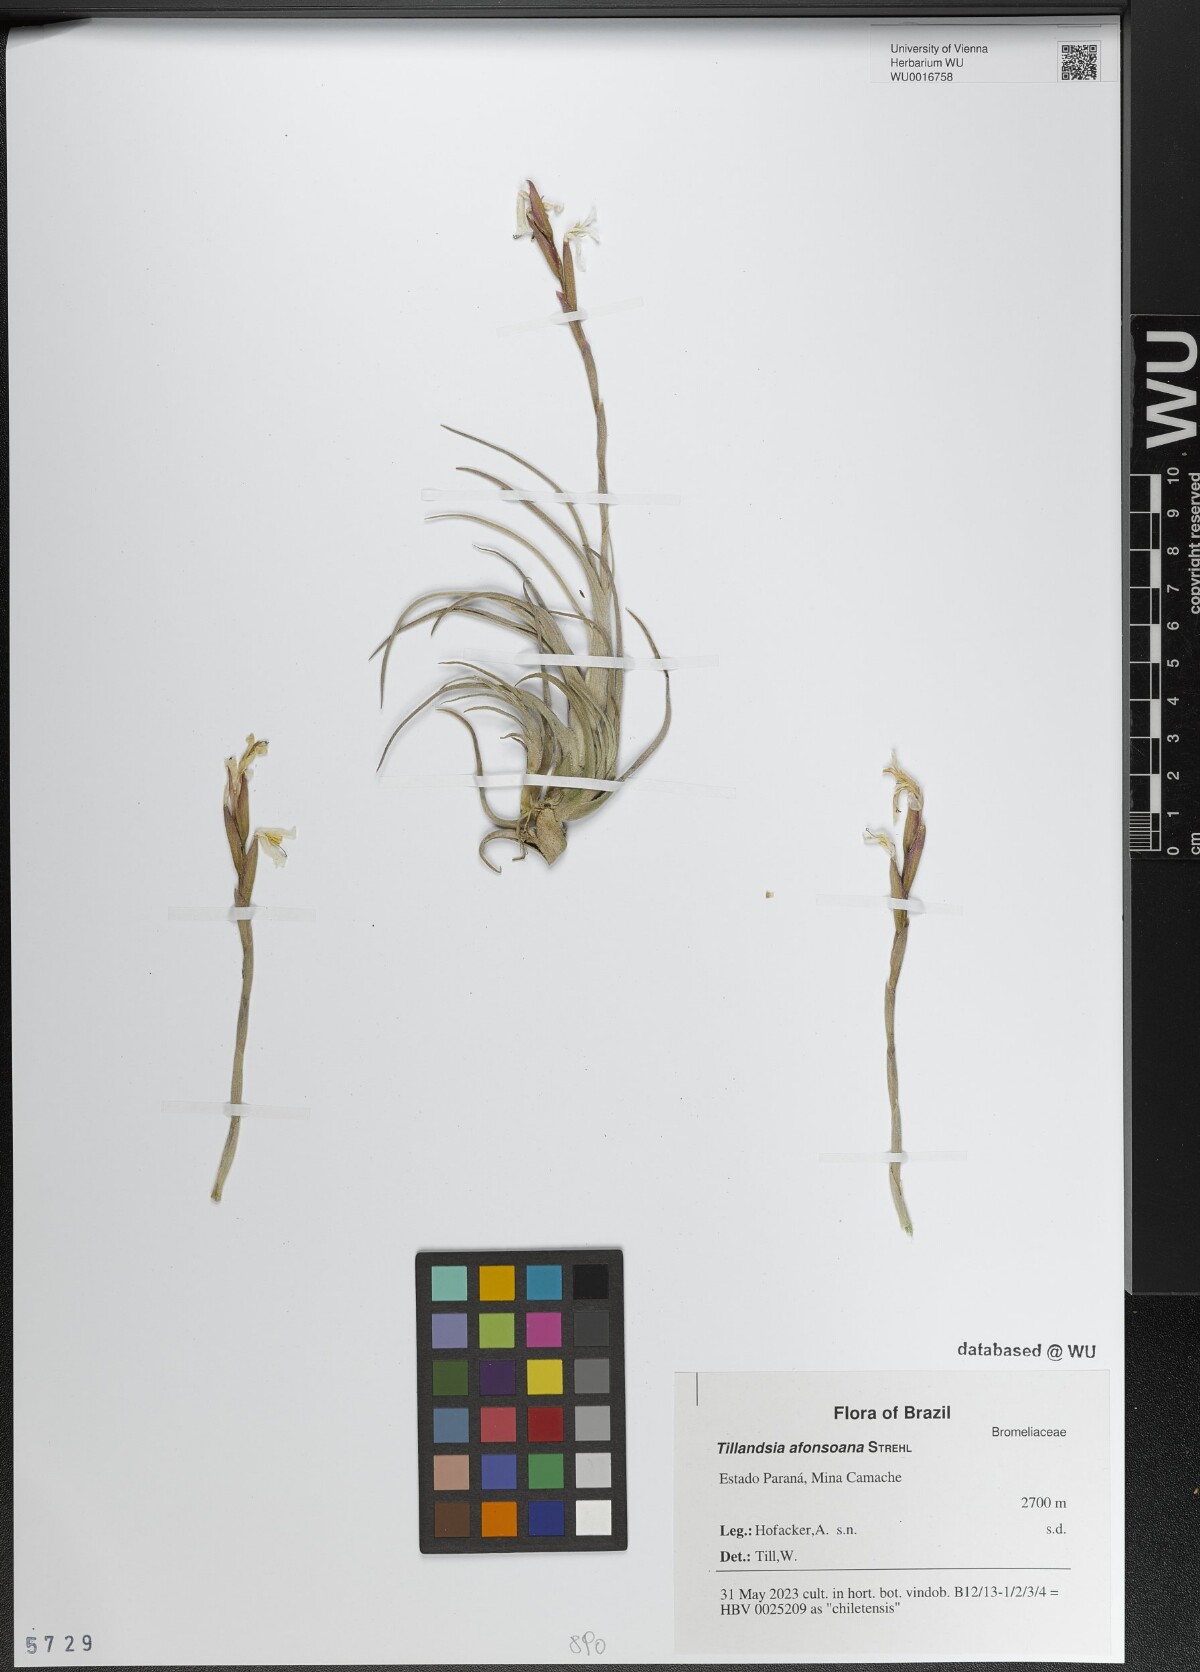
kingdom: Plantae
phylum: Tracheophyta
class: Liliopsida
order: Poales
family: Bromeliaceae
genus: Tillandsia
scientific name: Tillandsia afonsoana
